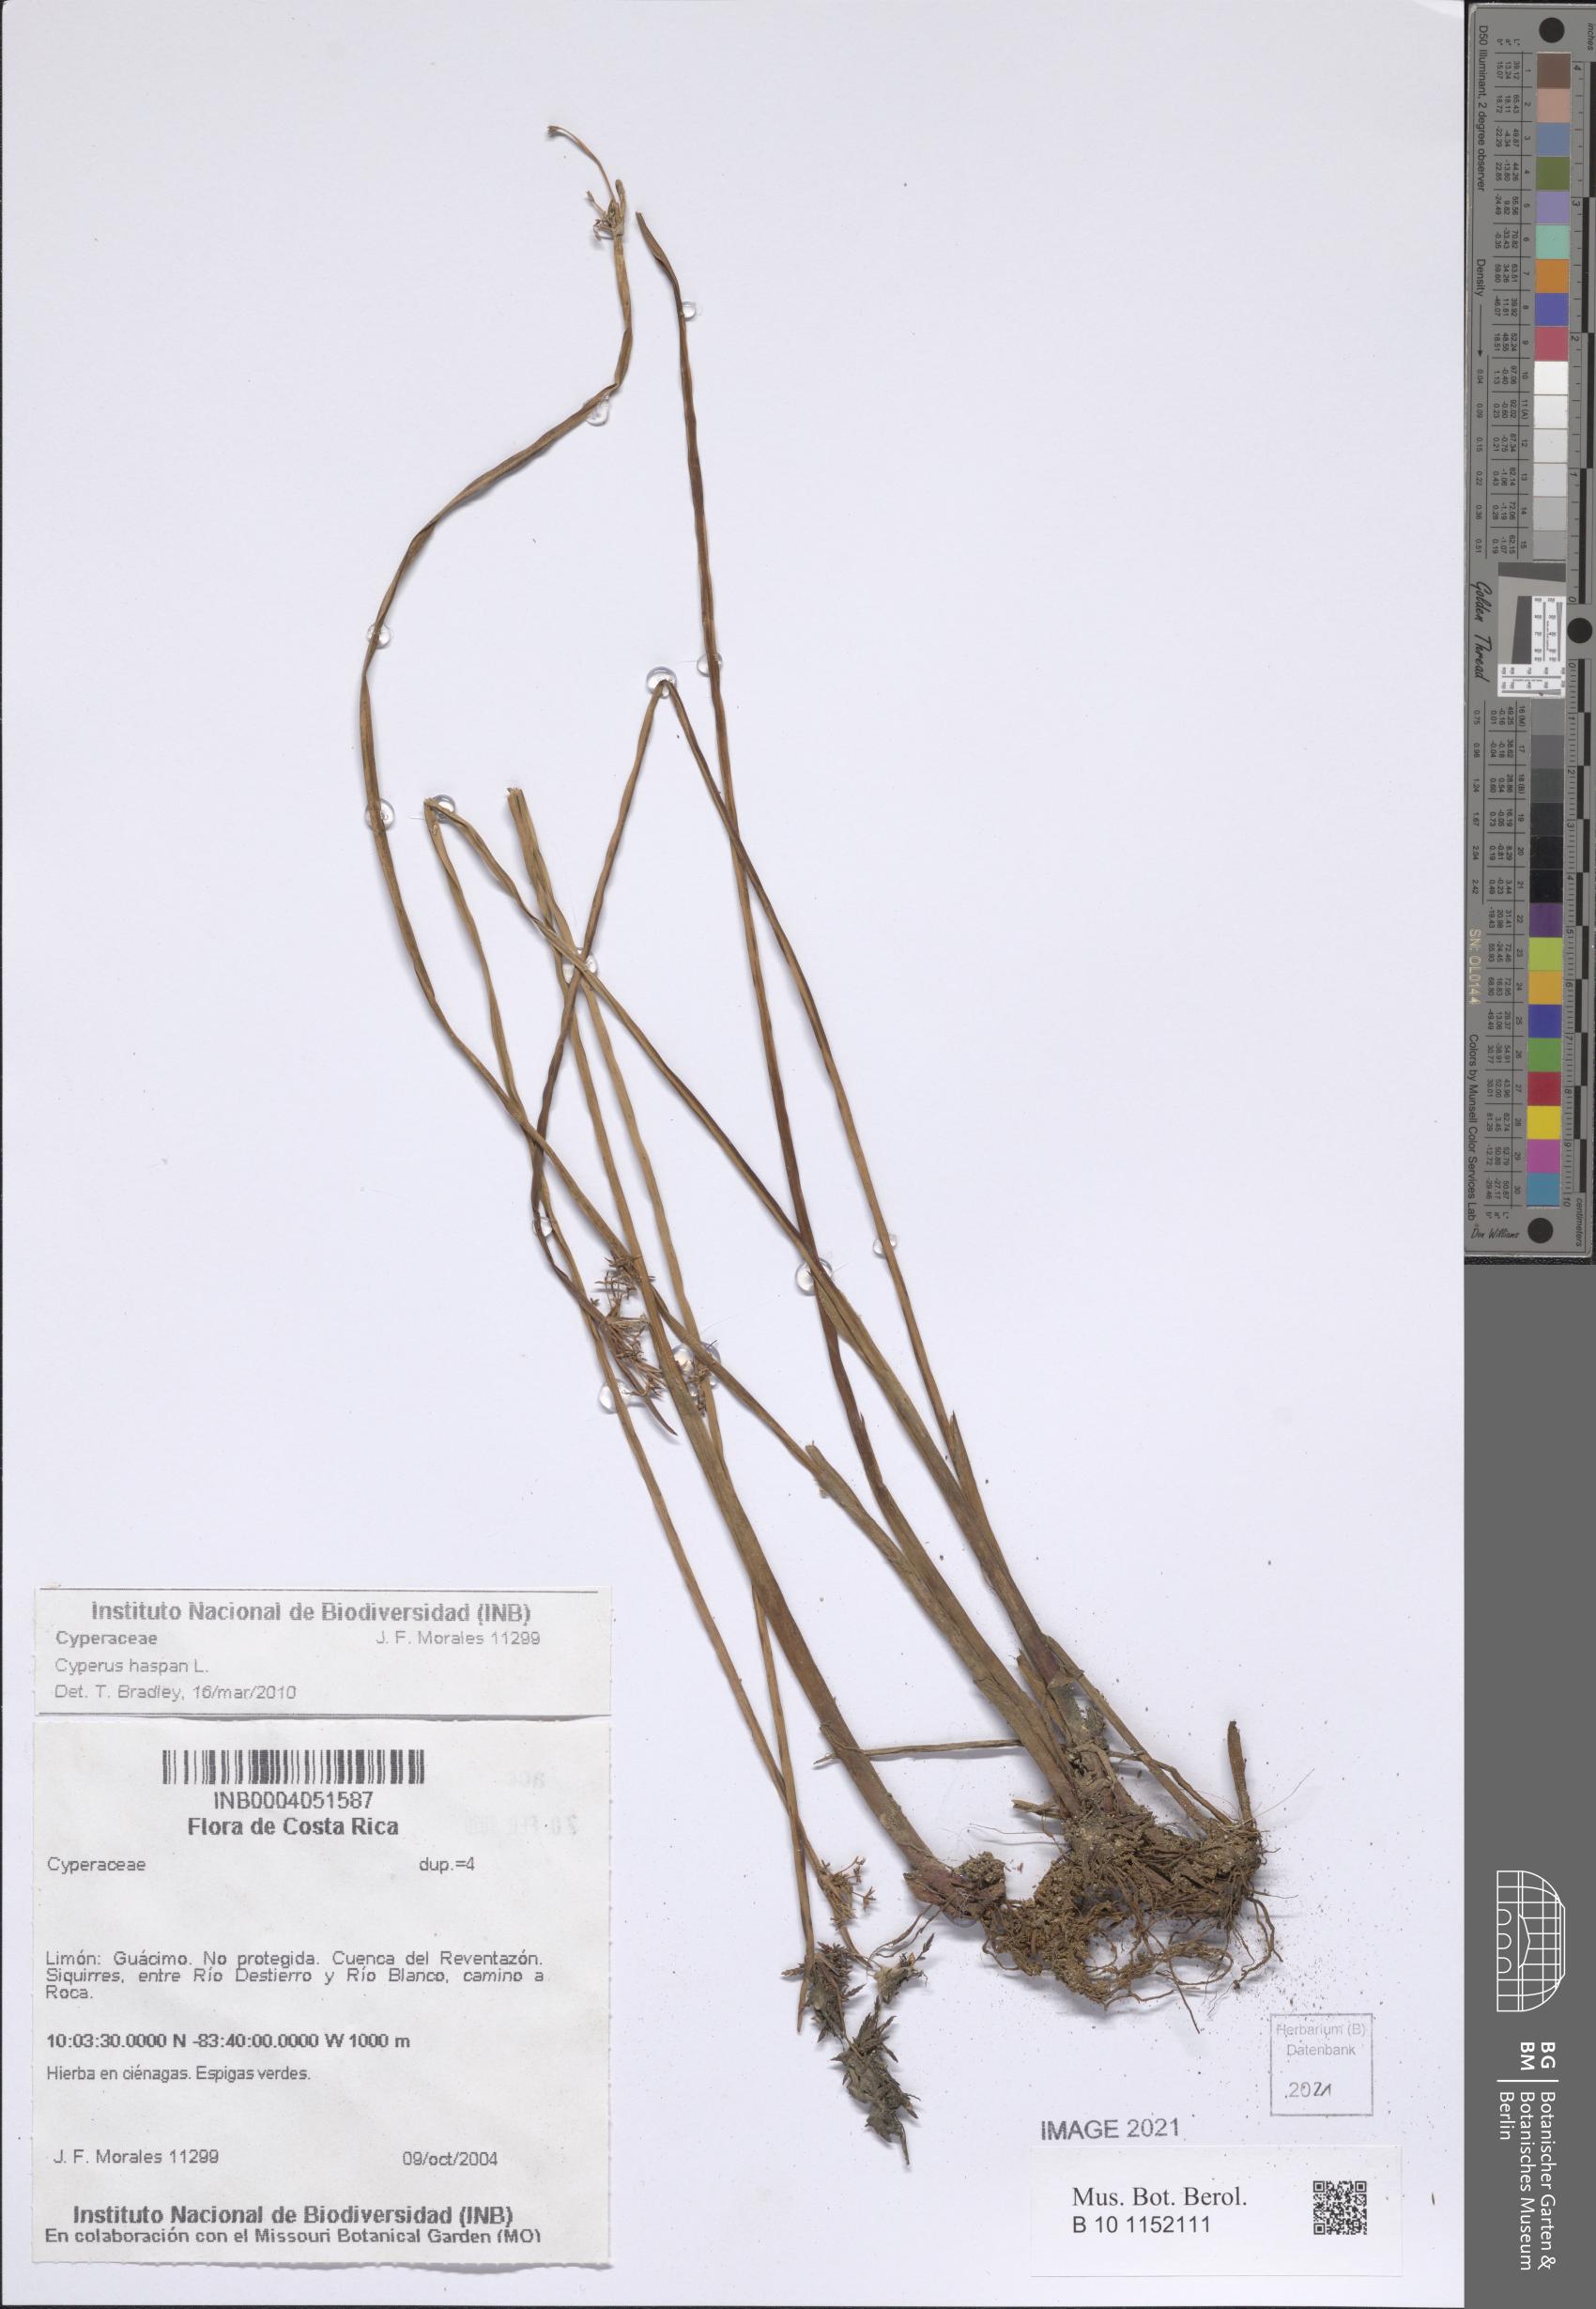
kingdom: Plantae
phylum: Tracheophyta
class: Liliopsida
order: Poales
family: Cyperaceae
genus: Cyperus
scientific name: Cyperus haspan
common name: Haspan flatsedge
